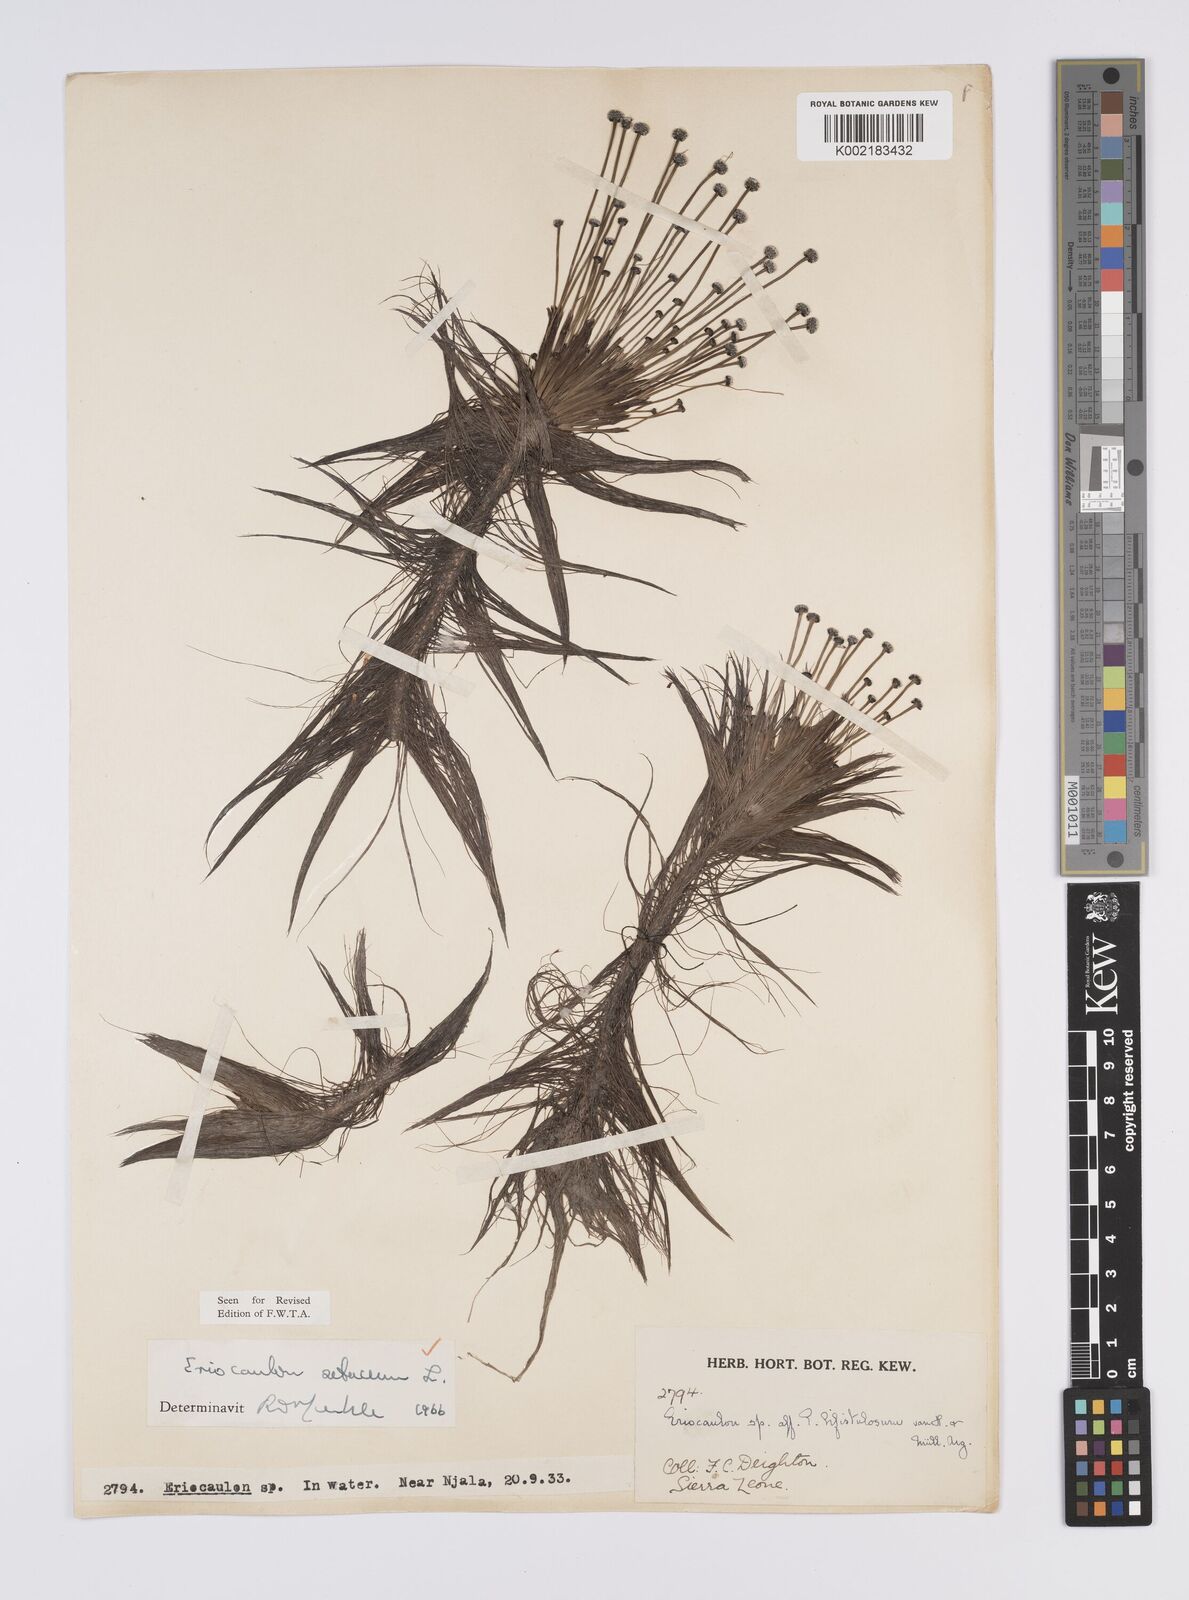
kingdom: Plantae
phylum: Tracheophyta
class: Liliopsida
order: Poales
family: Eriocaulaceae
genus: Eriocaulon
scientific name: Eriocaulon setaceum
